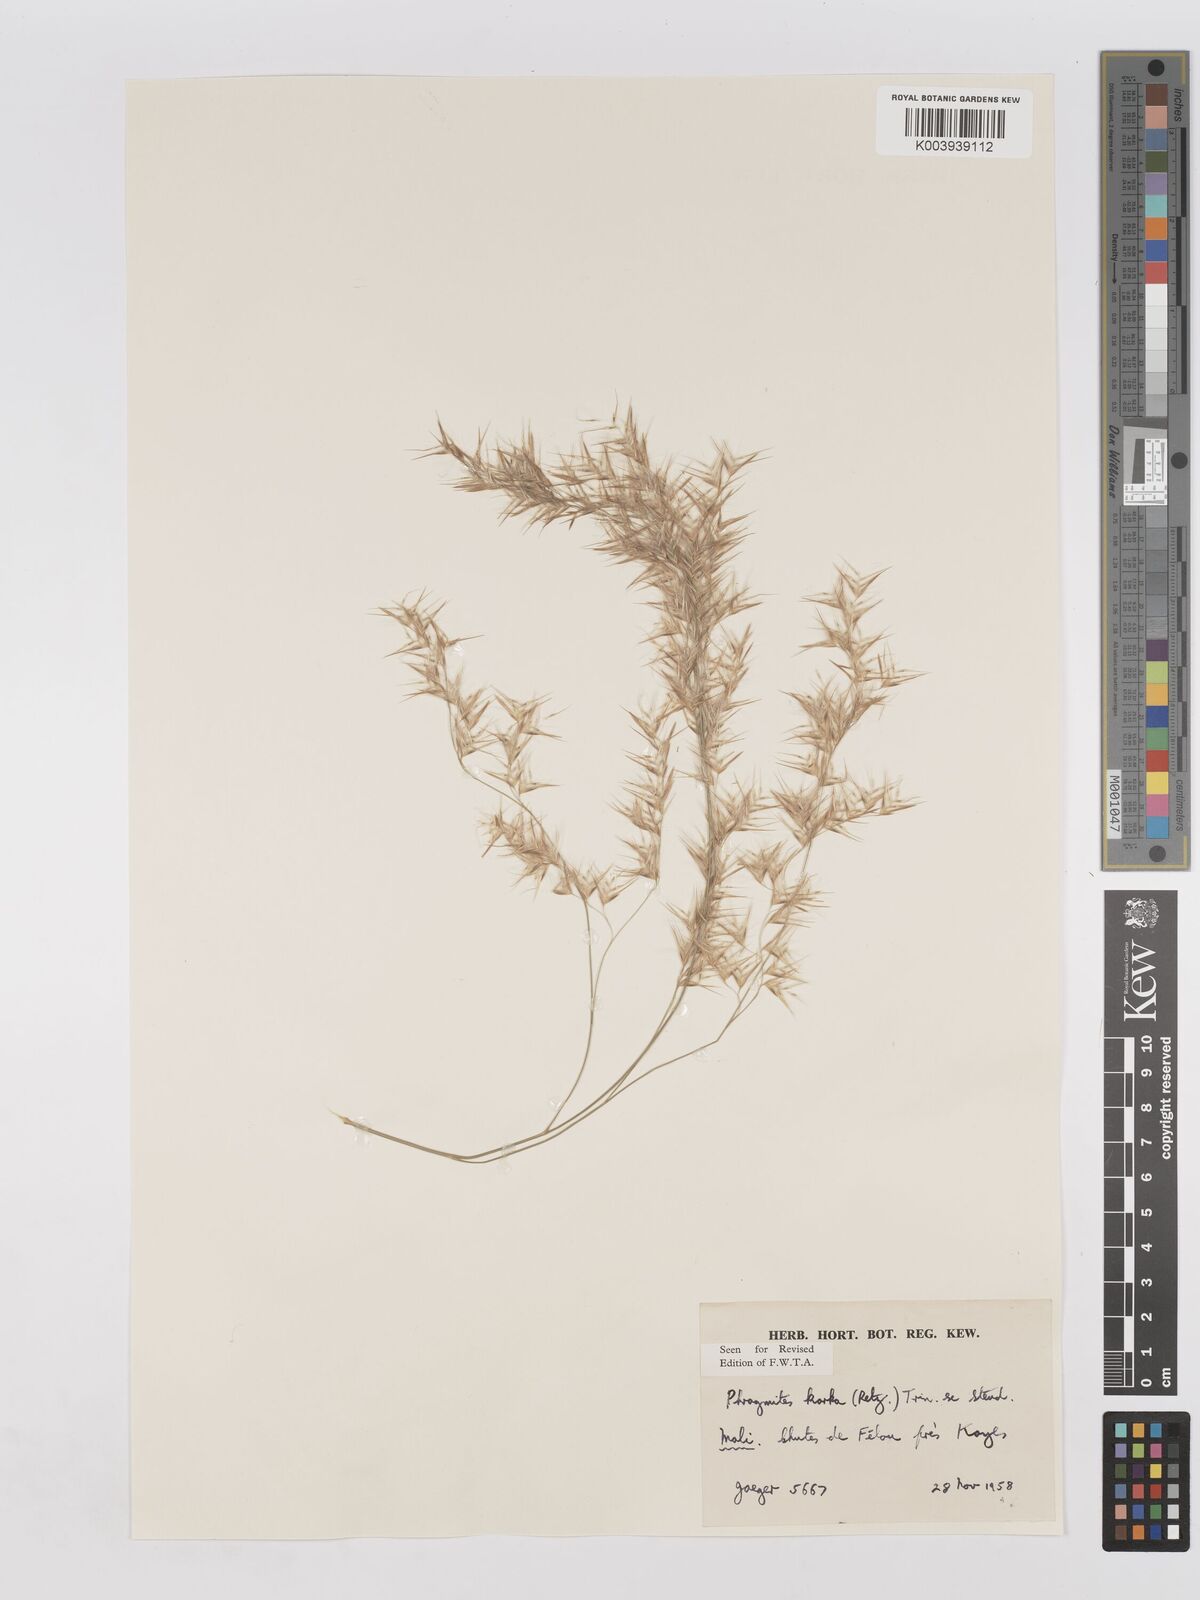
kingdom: Plantae
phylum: Tracheophyta
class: Liliopsida
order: Poales
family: Poaceae
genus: Phragmites
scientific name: Phragmites karka
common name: Tropical reed
